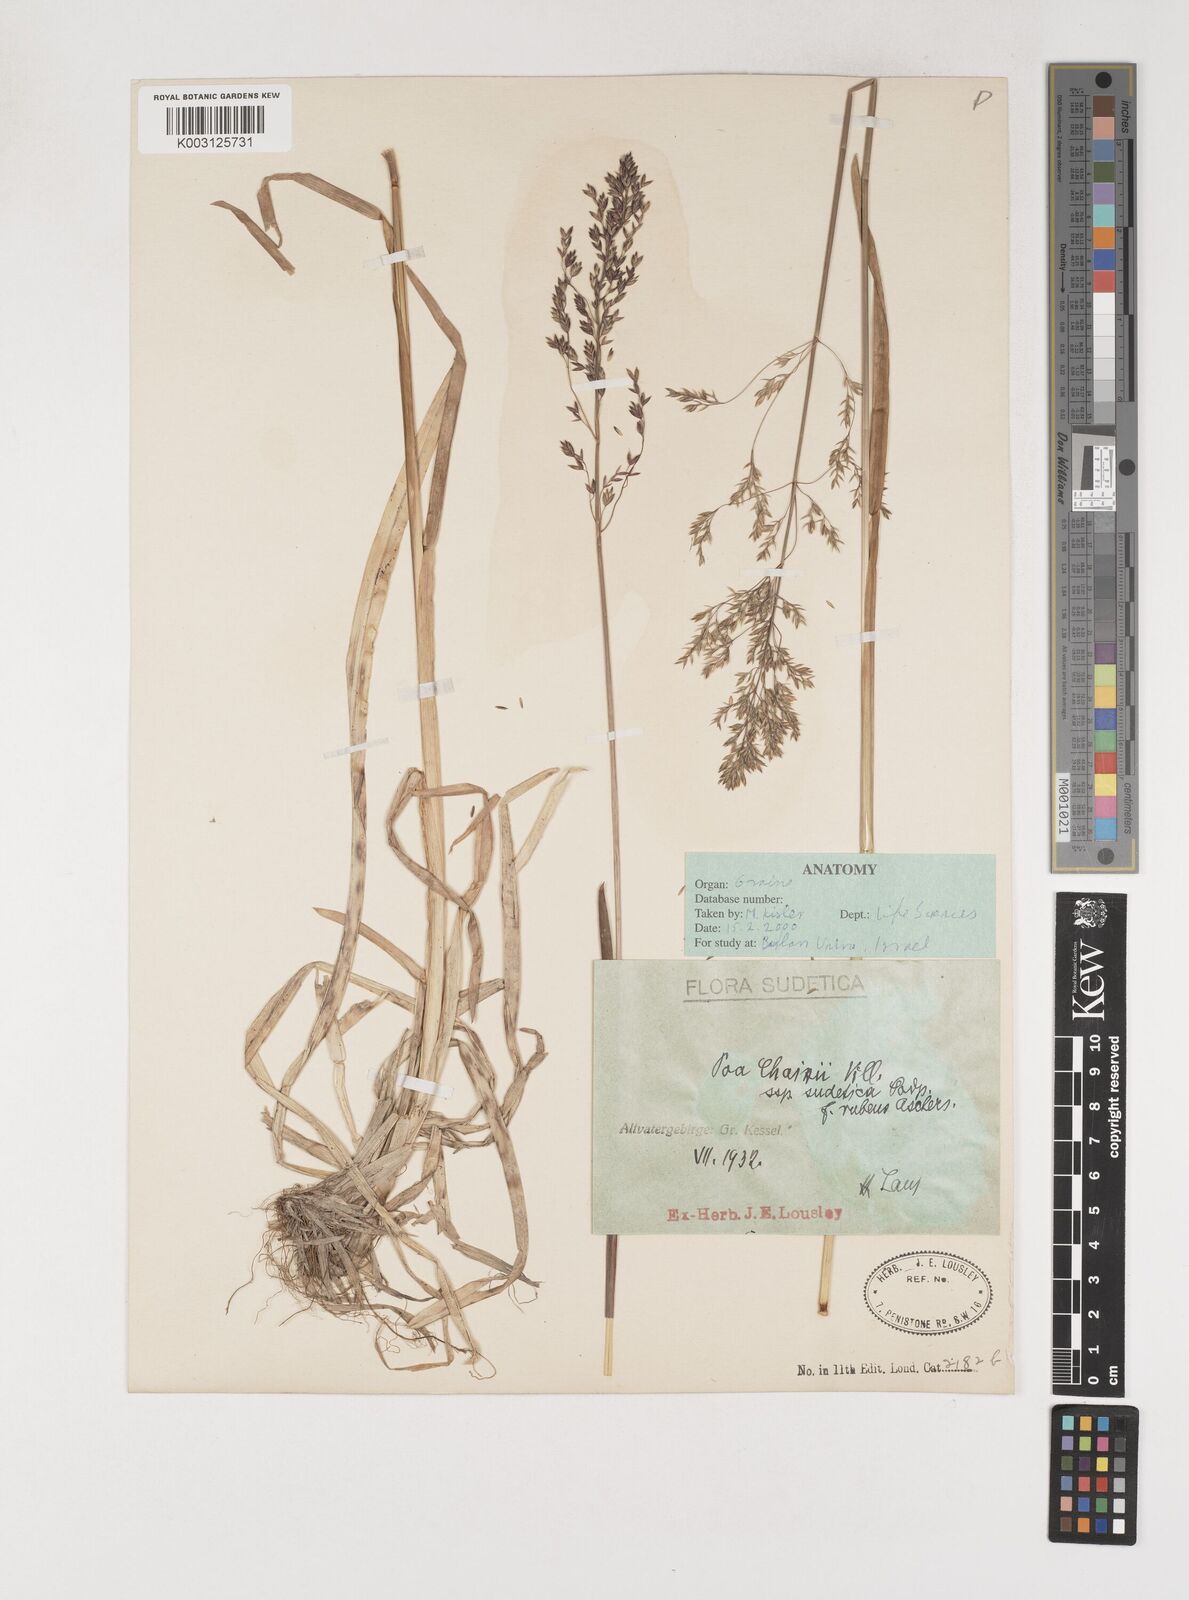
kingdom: Plantae
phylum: Tracheophyta
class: Liliopsida
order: Poales
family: Poaceae
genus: Poa
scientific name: Poa chaixii
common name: Broad-leaved meadow-grass
